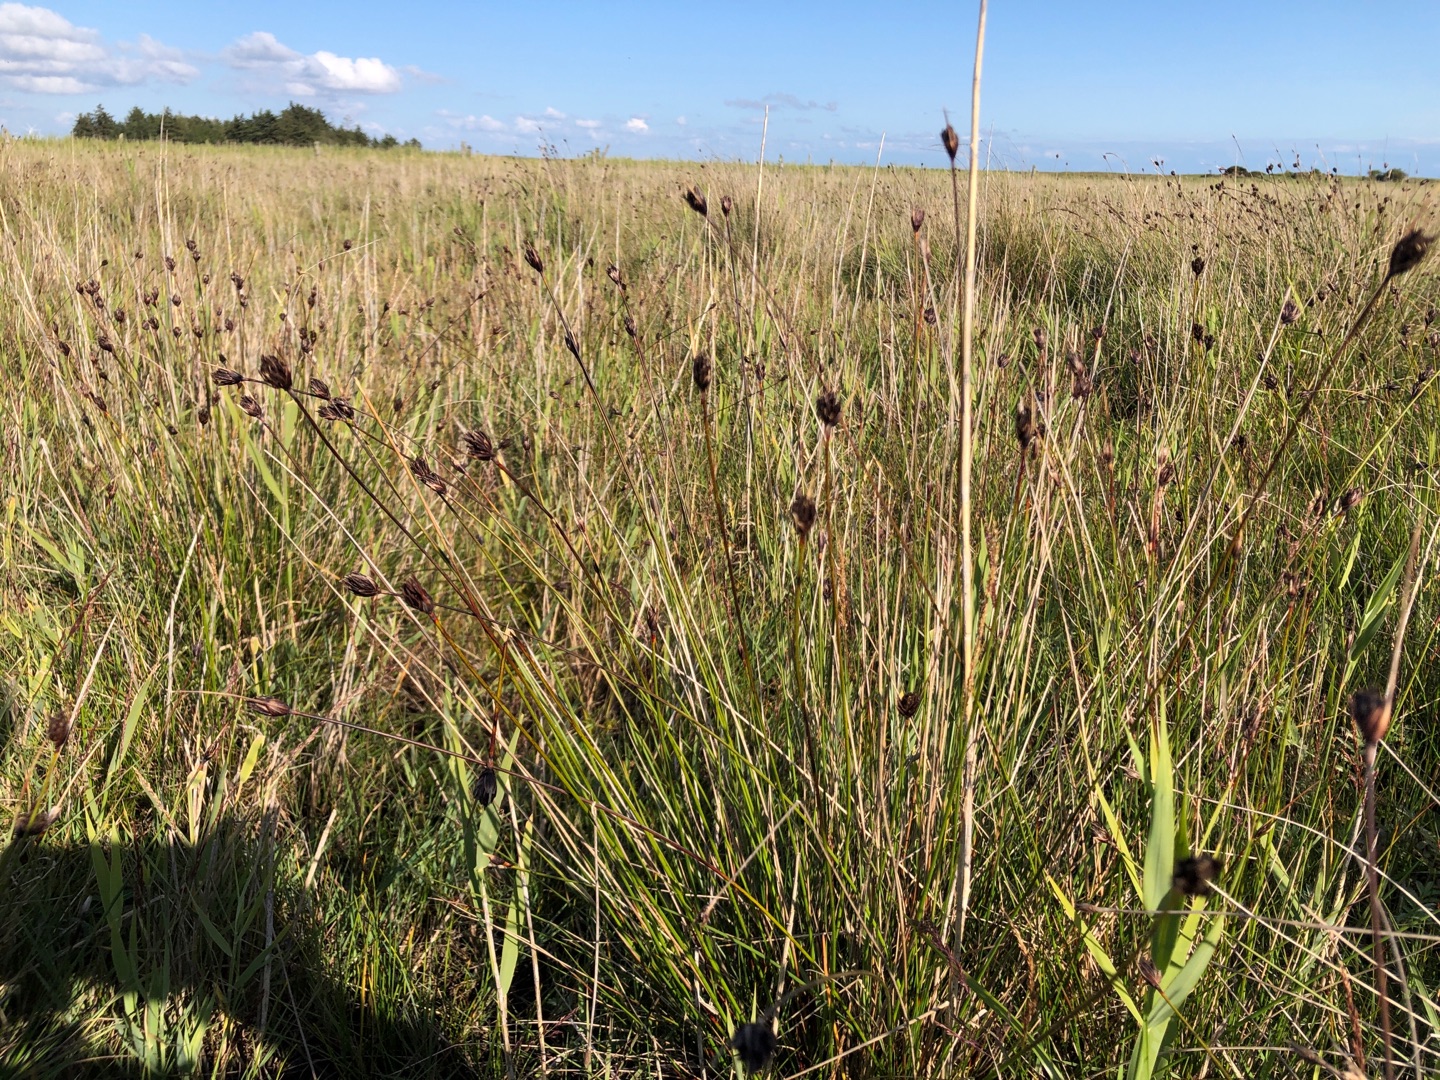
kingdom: Plantae
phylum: Tracheophyta
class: Liliopsida
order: Poales
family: Cyperaceae
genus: Schoenus
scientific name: Schoenus nigricans
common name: Sort skæne
